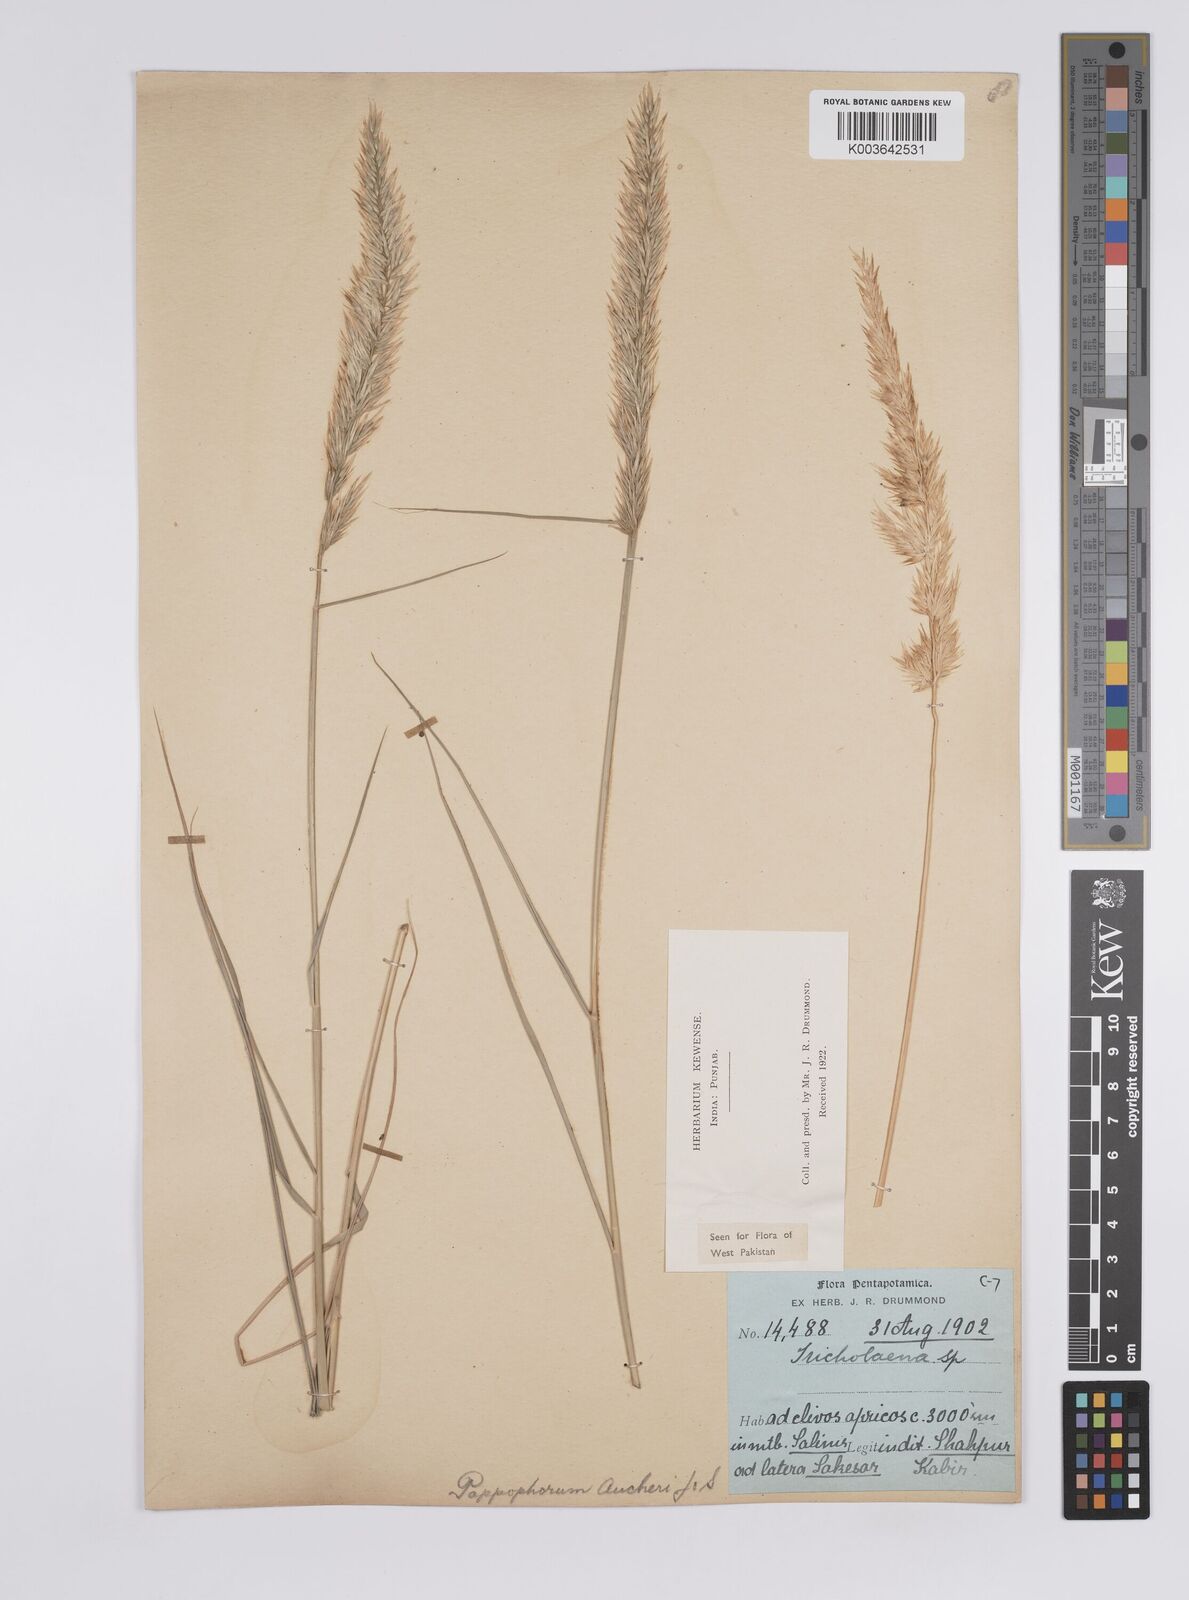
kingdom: Plantae
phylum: Tracheophyta
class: Liliopsida
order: Poales
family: Poaceae
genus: Enneapogon
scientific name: Enneapogon persicus
